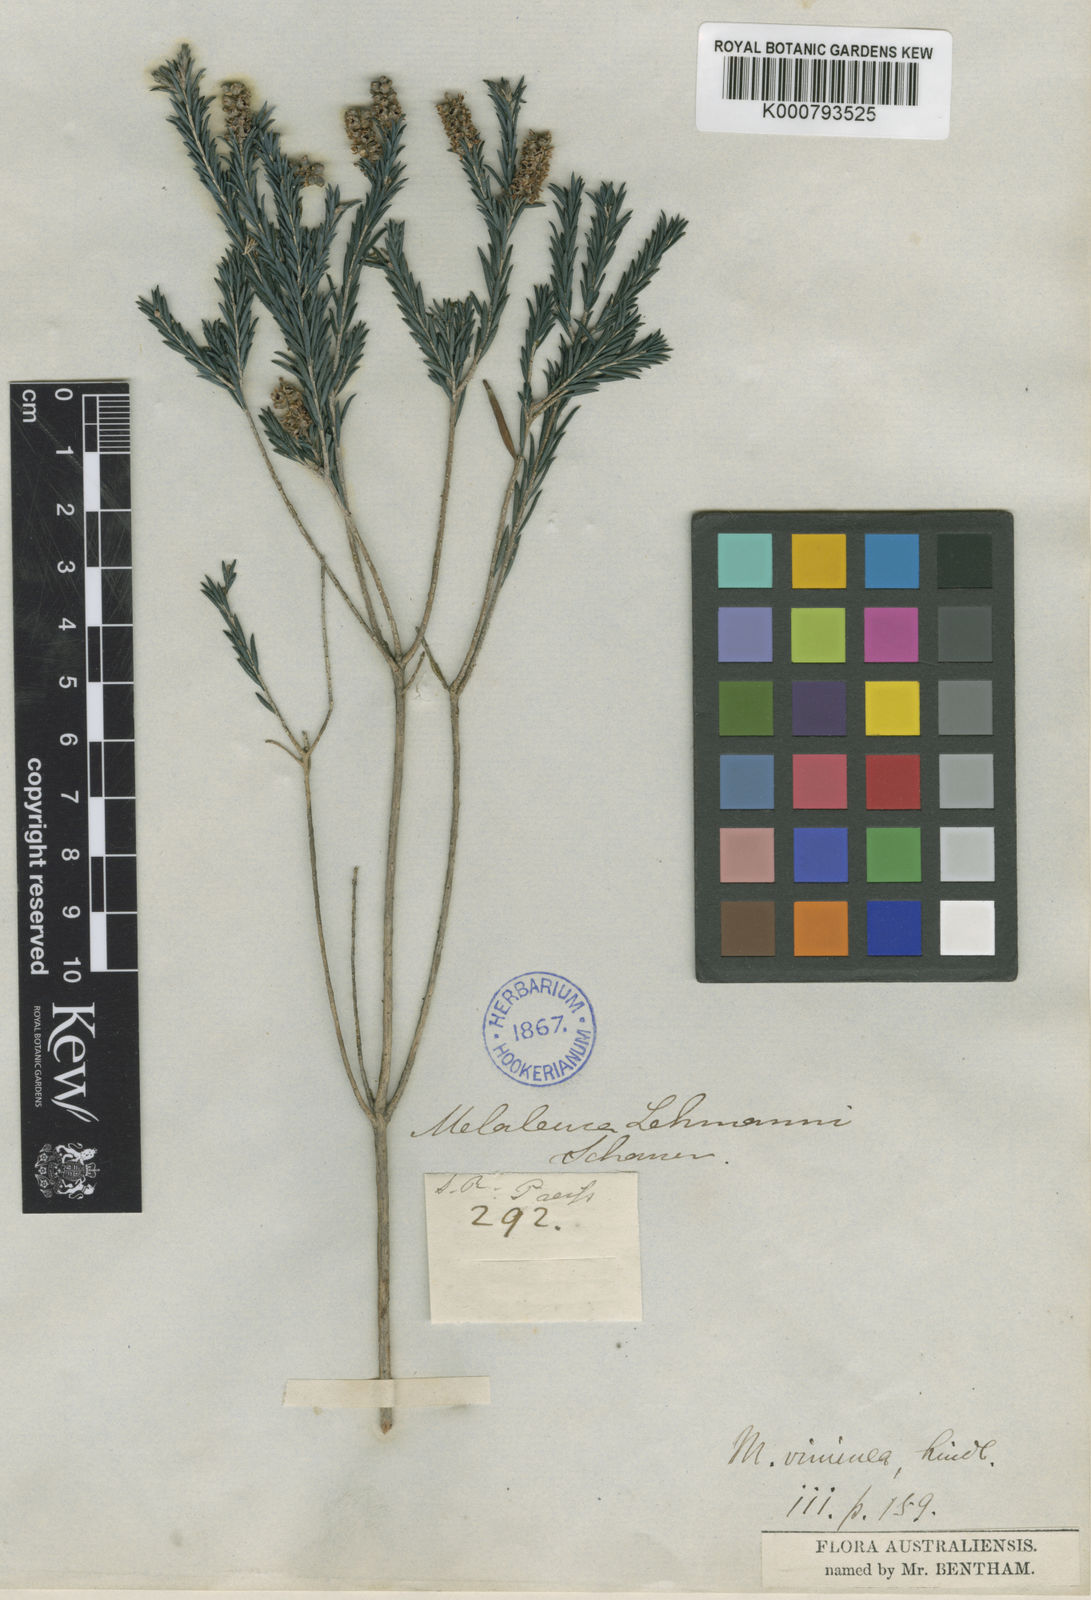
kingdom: Plantae
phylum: Tracheophyta
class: Magnoliopsida
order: Myrtales
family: Myrtaceae
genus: Melaleuca
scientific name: Melaleuca viminea
